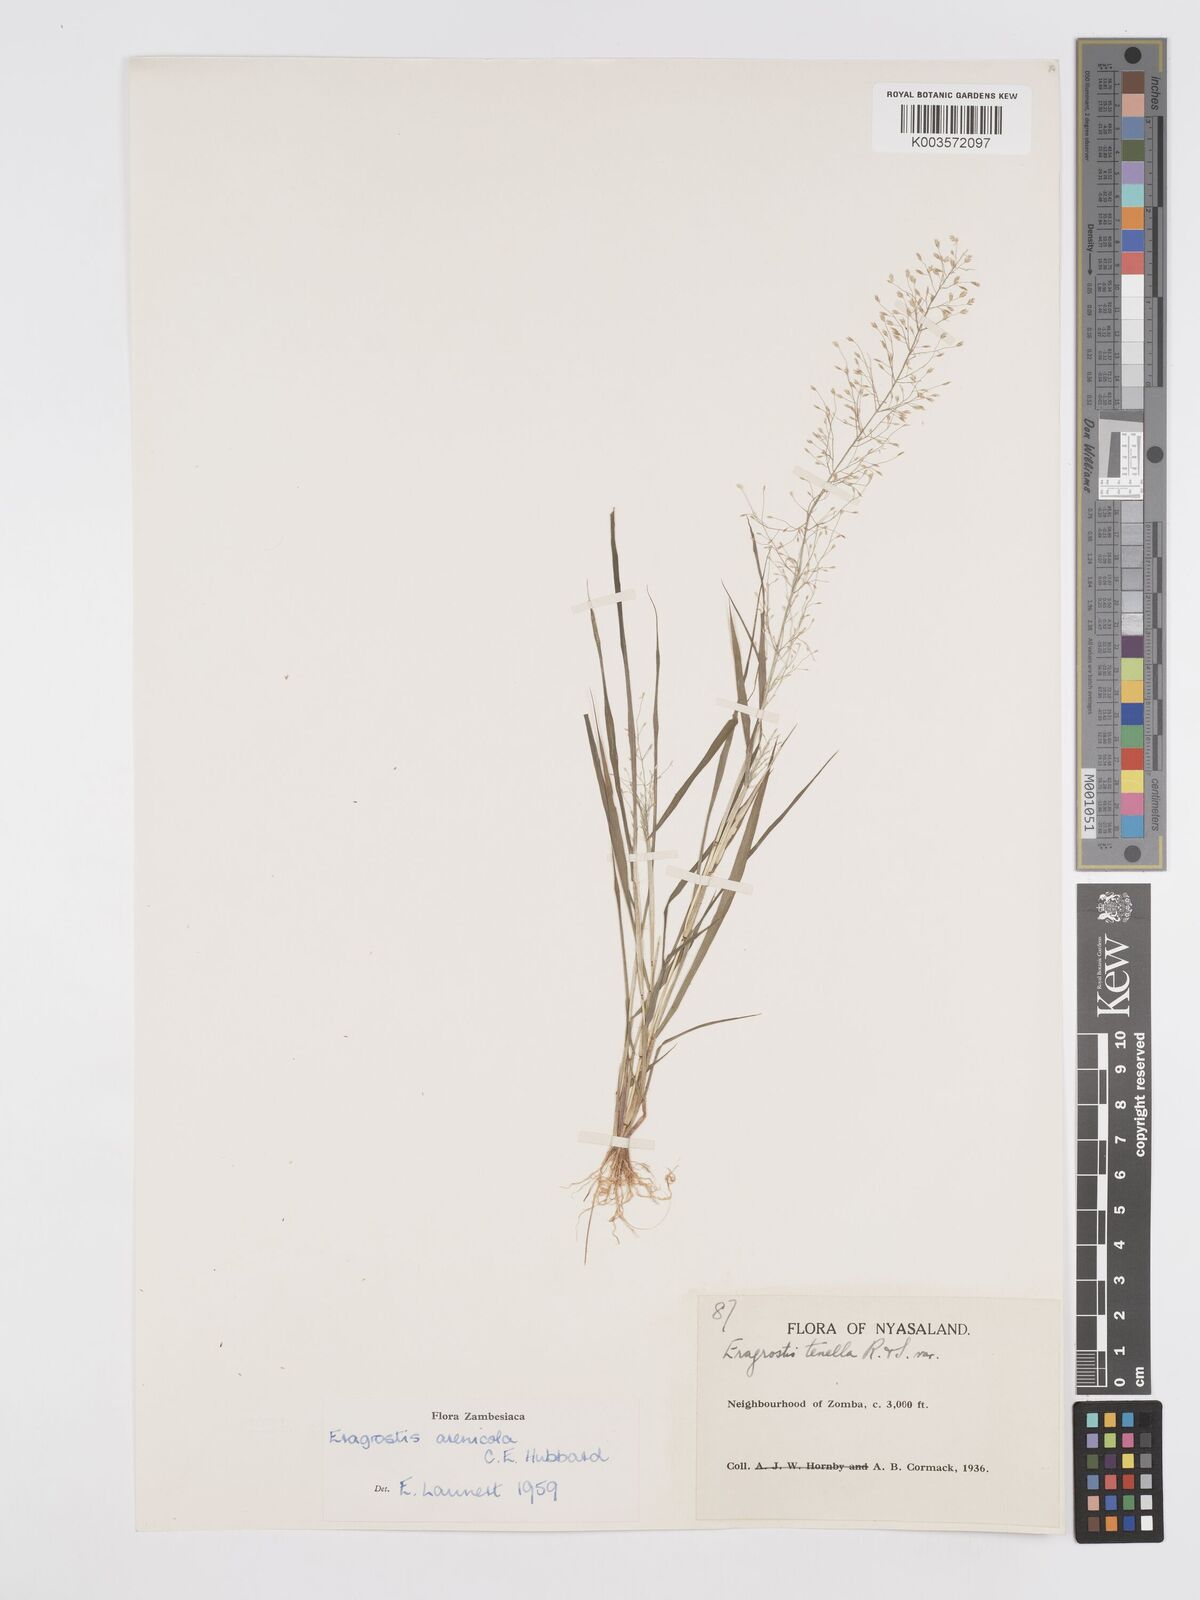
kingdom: Plantae
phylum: Tracheophyta
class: Liliopsida
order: Poales
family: Poaceae
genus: Eragrostis
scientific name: Eragrostis arenicola
